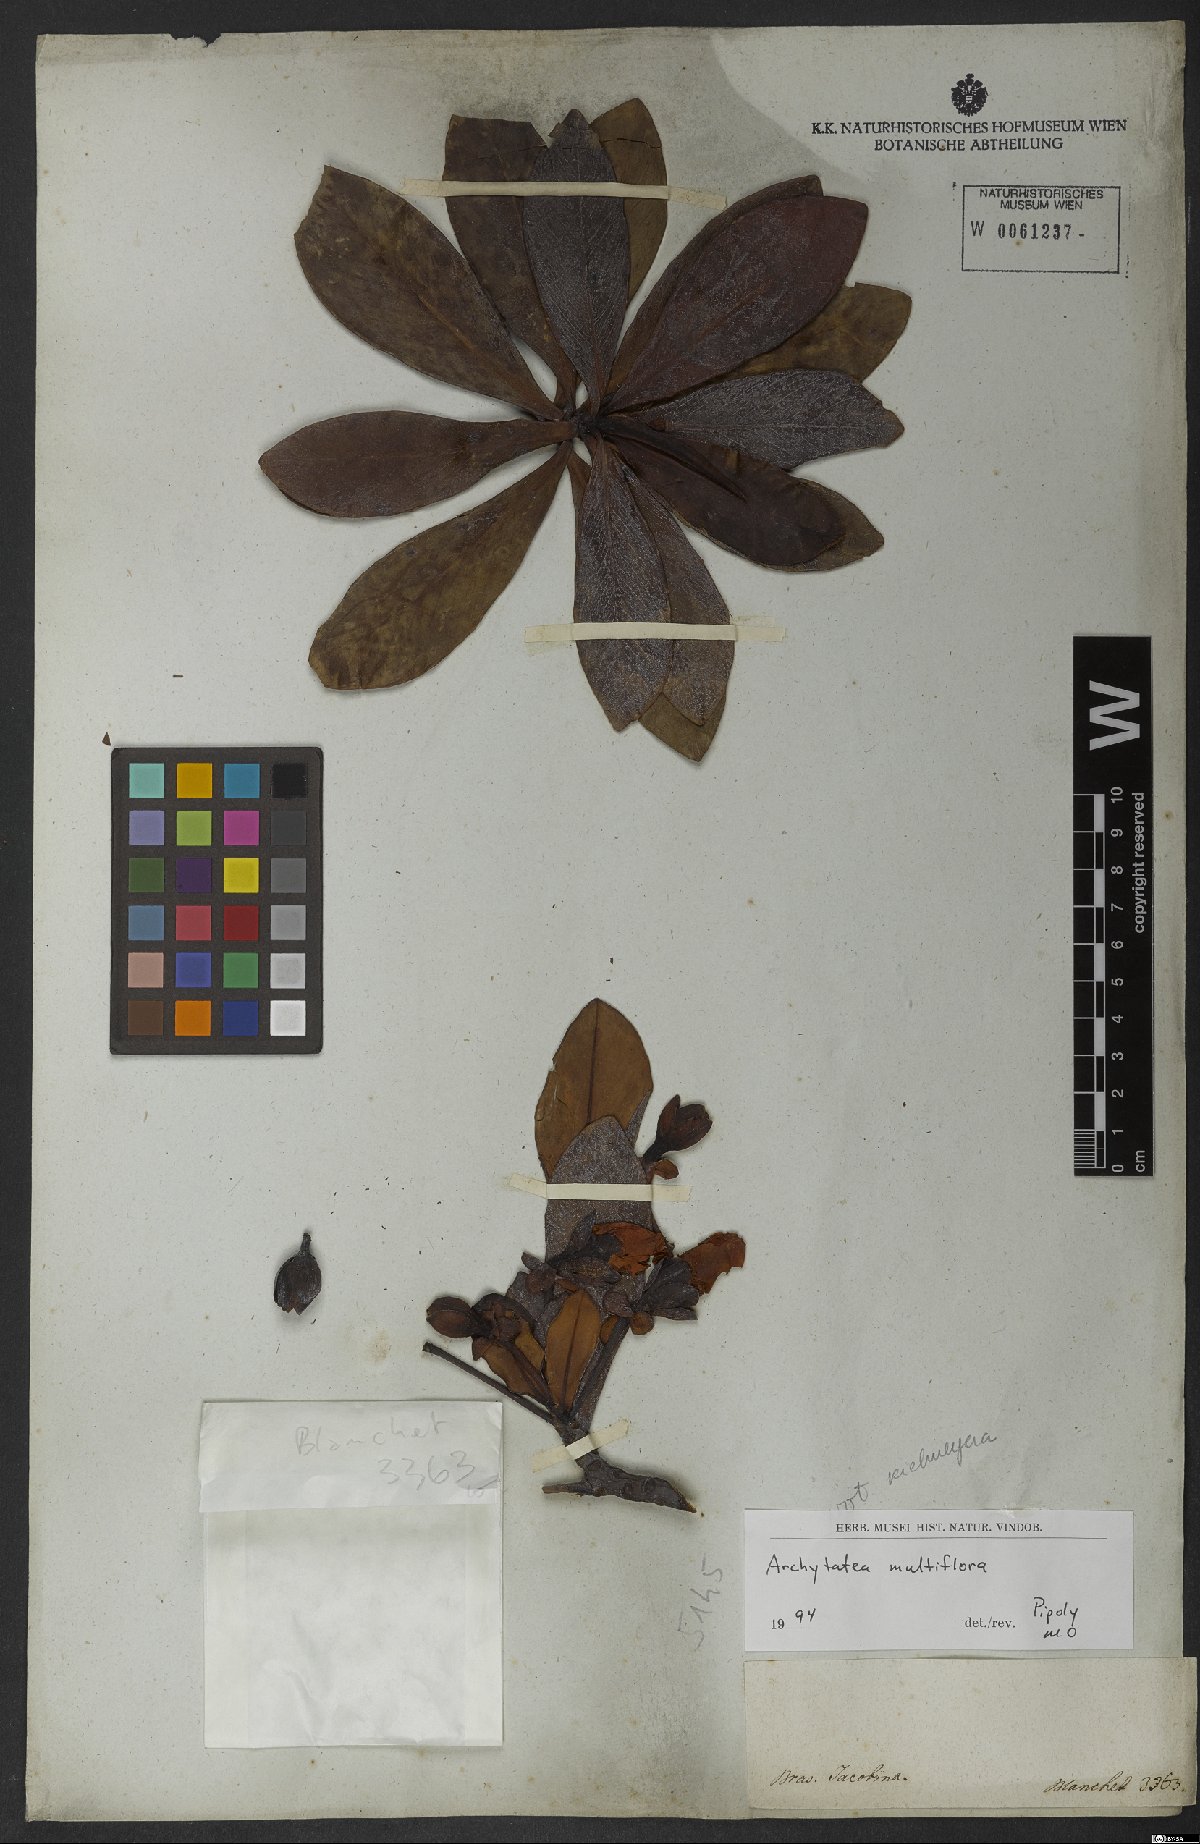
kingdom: Plantae
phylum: Tracheophyta
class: Magnoliopsida
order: Malpighiales
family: Bonnetiaceae
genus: Bonnetia
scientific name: Bonnetia stricta
